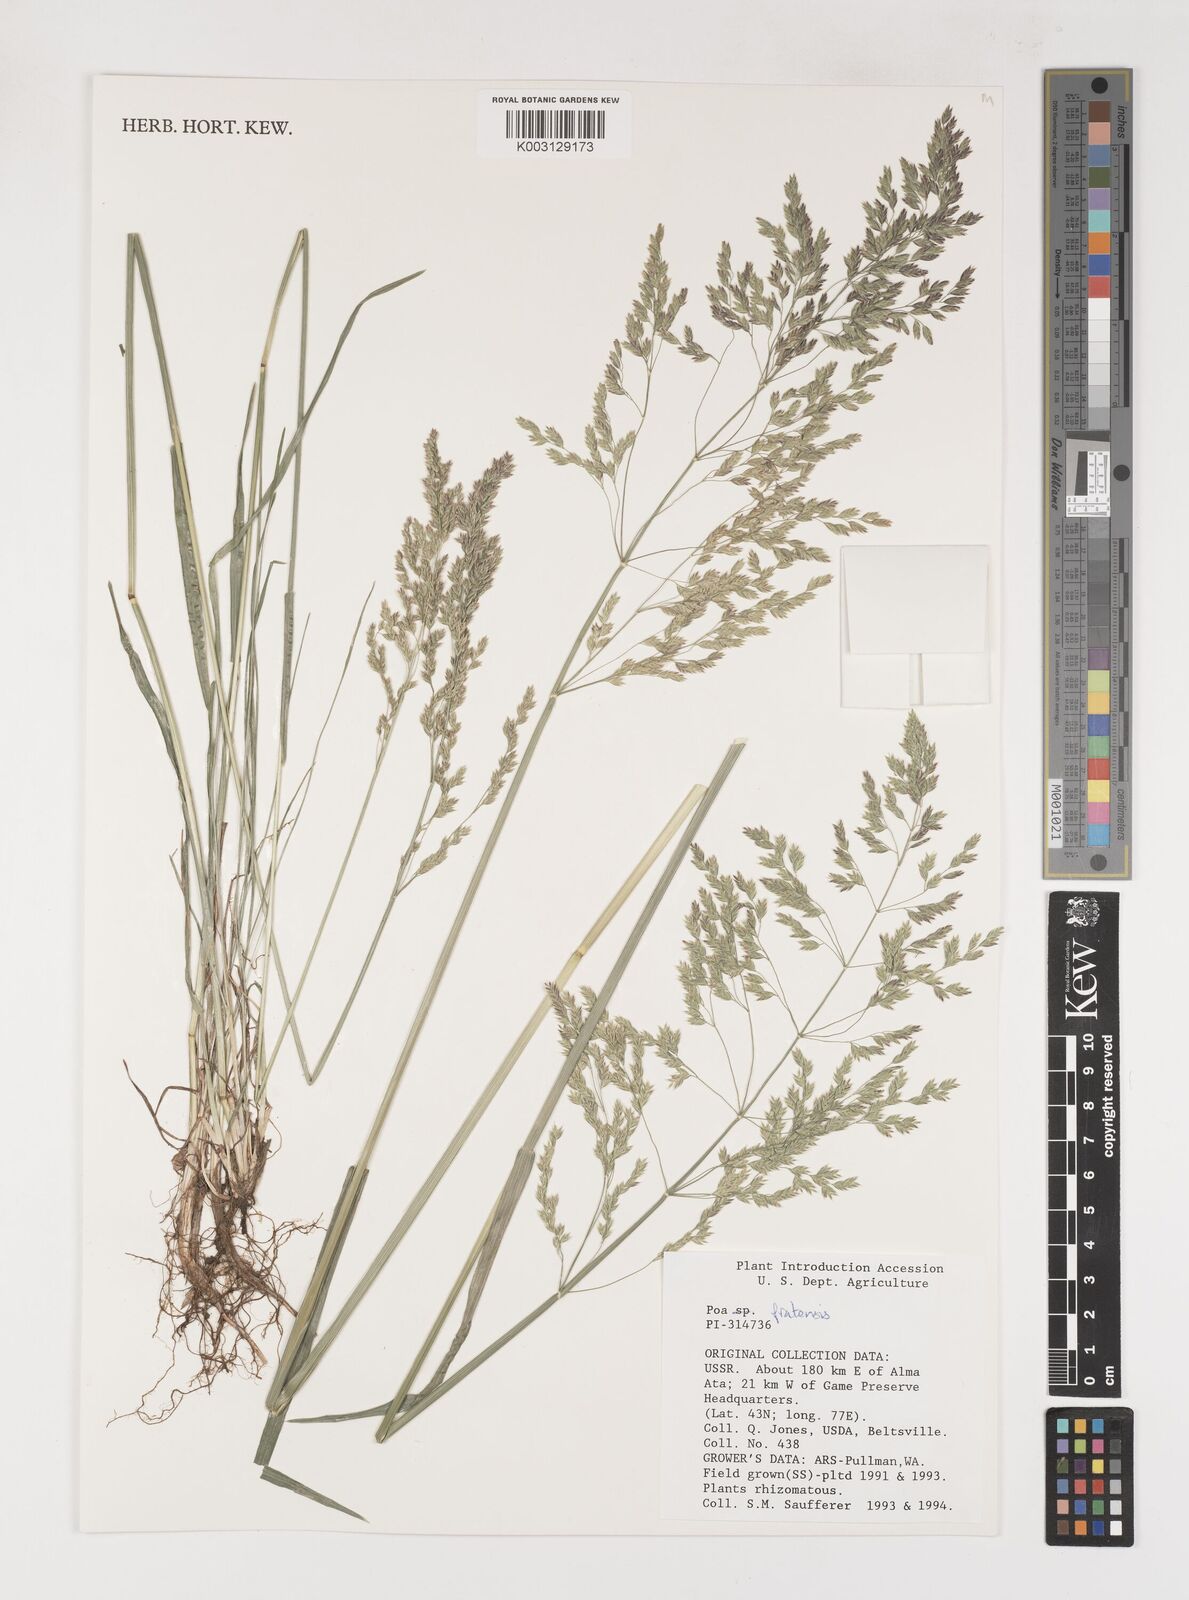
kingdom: Plantae
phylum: Tracheophyta
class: Liliopsida
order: Poales
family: Poaceae
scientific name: Poaceae
